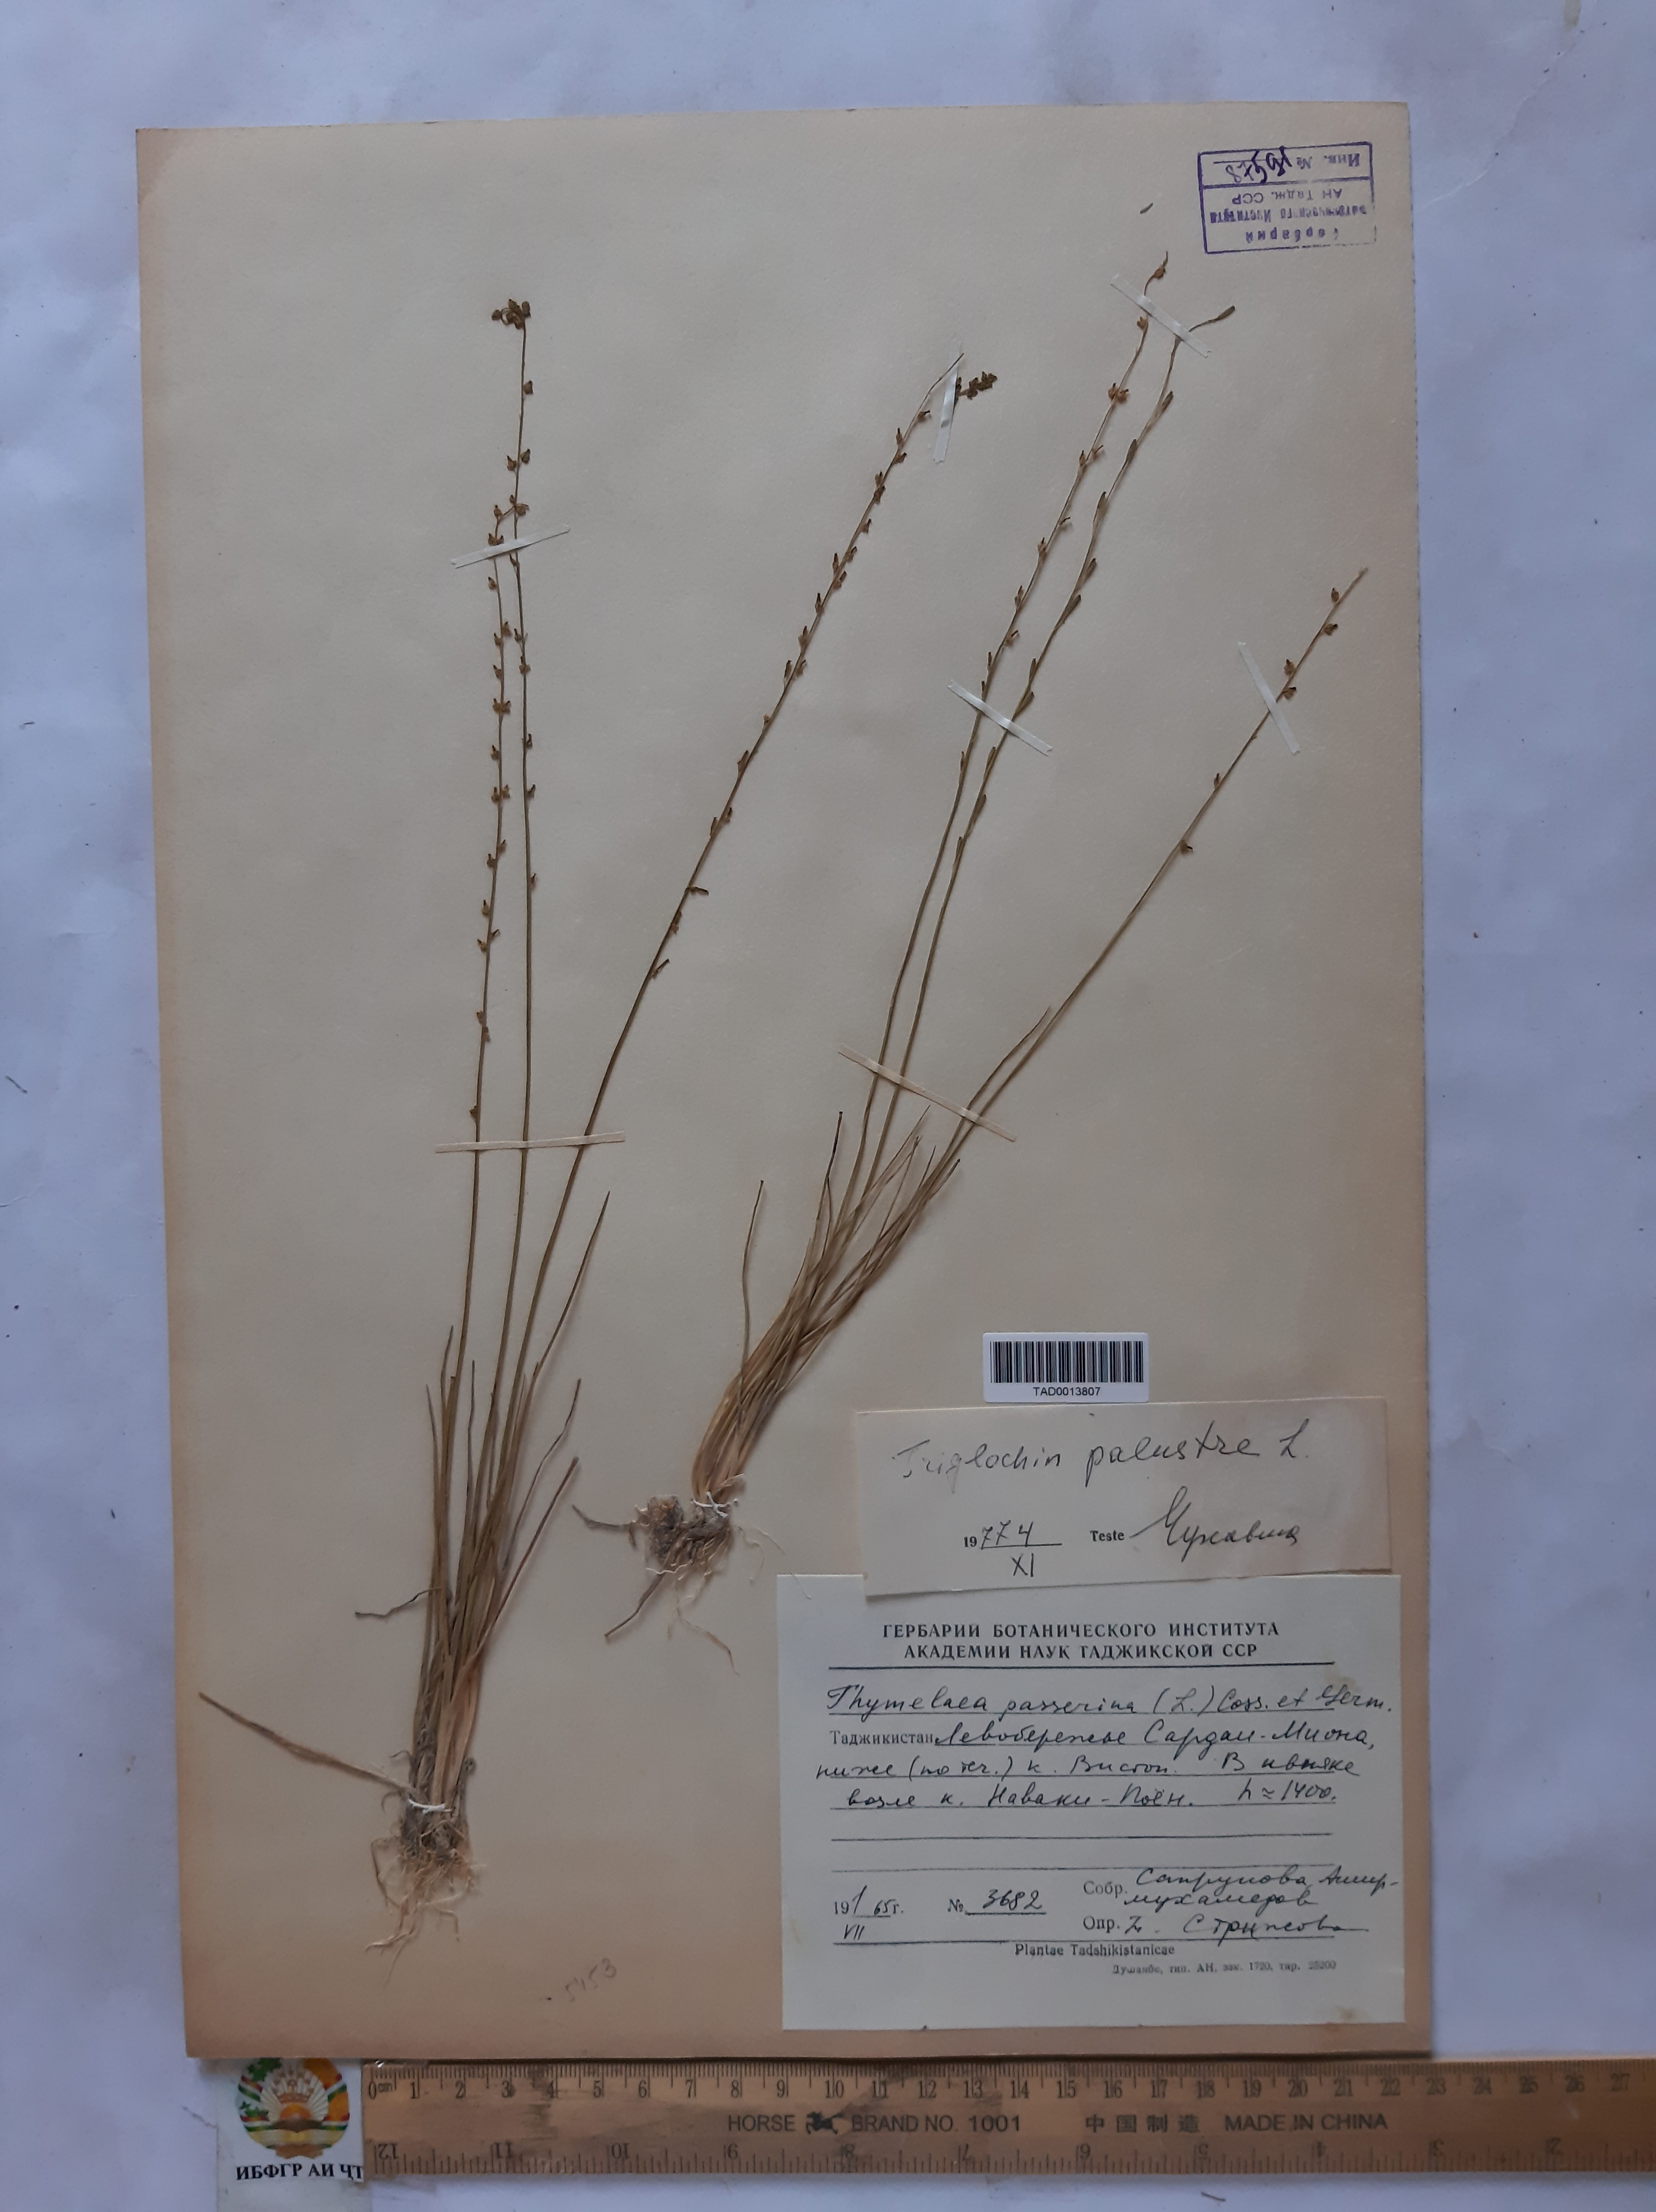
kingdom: Plantae
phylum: Tracheophyta
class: Liliopsida
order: Alismatales
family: Juncaginaceae
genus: Triglochin
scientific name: Triglochin palustris
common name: Marsh arrowgrass
